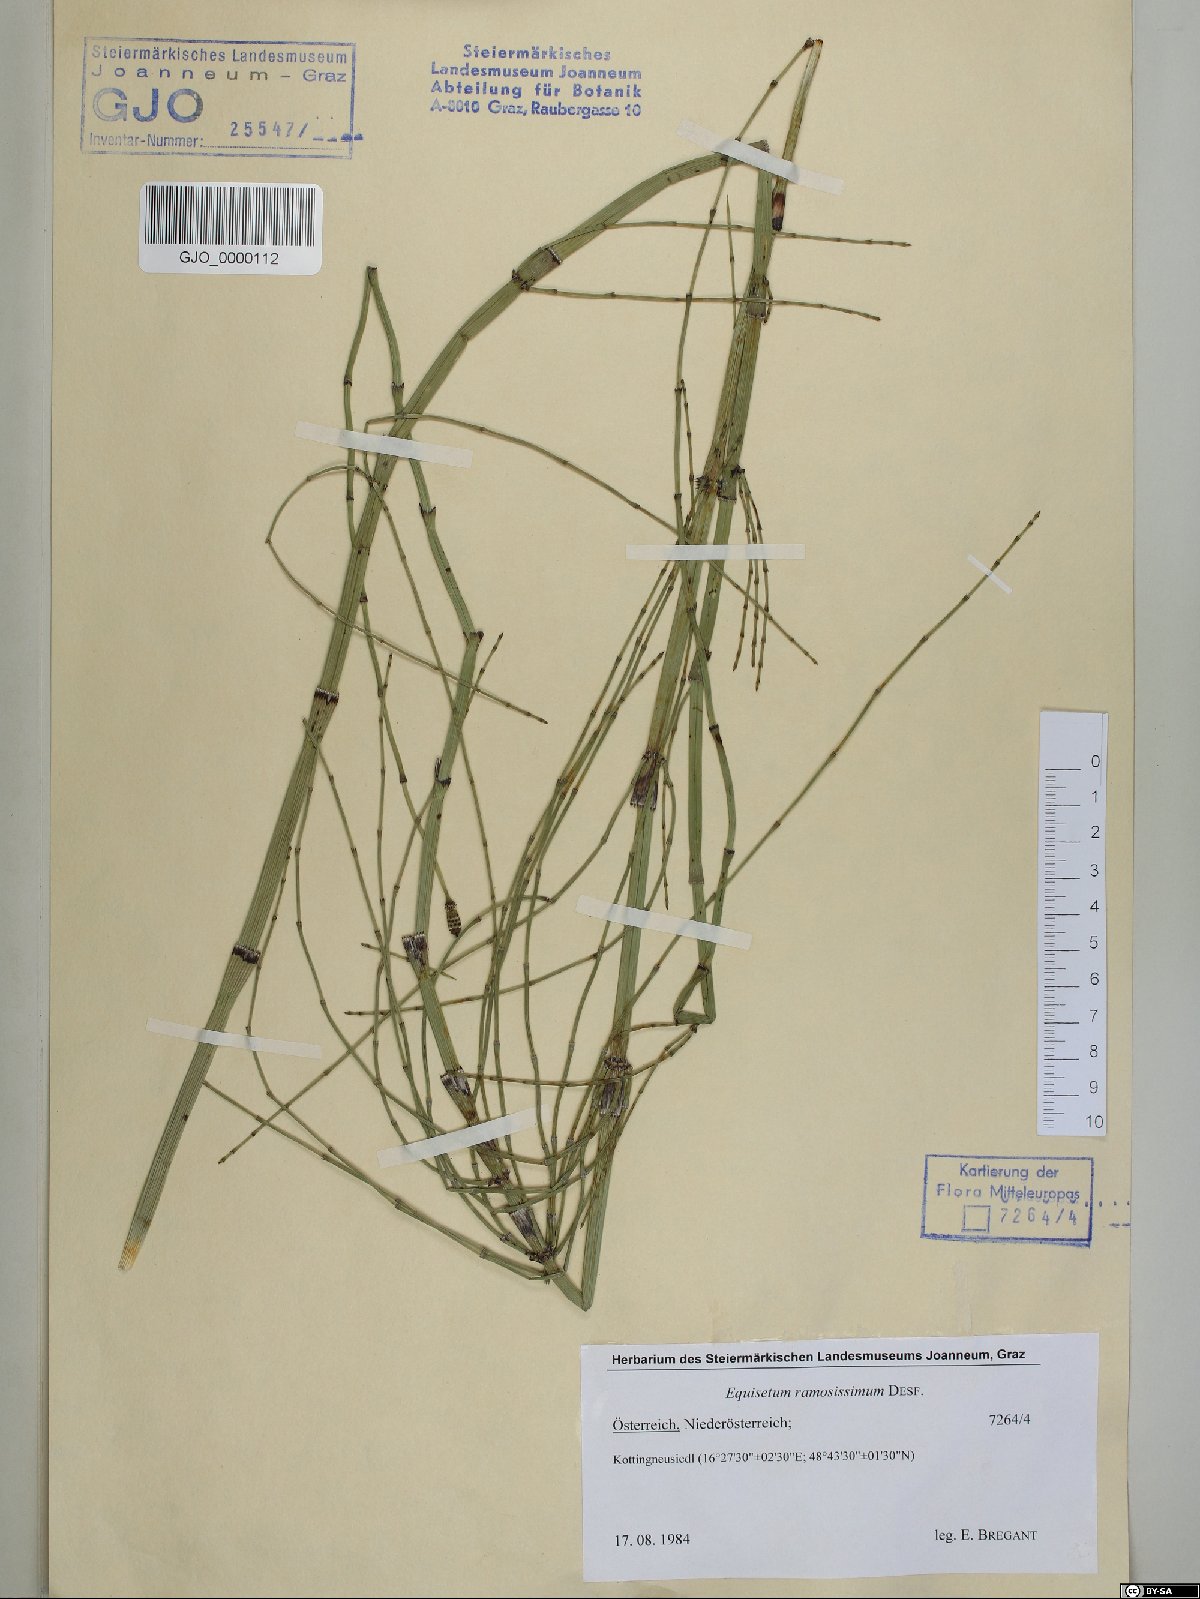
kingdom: Plantae
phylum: Tracheophyta
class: Polypodiopsida
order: Equisetales
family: Equisetaceae
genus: Equisetum
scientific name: Equisetum ramosissimum
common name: Branched horsetail
